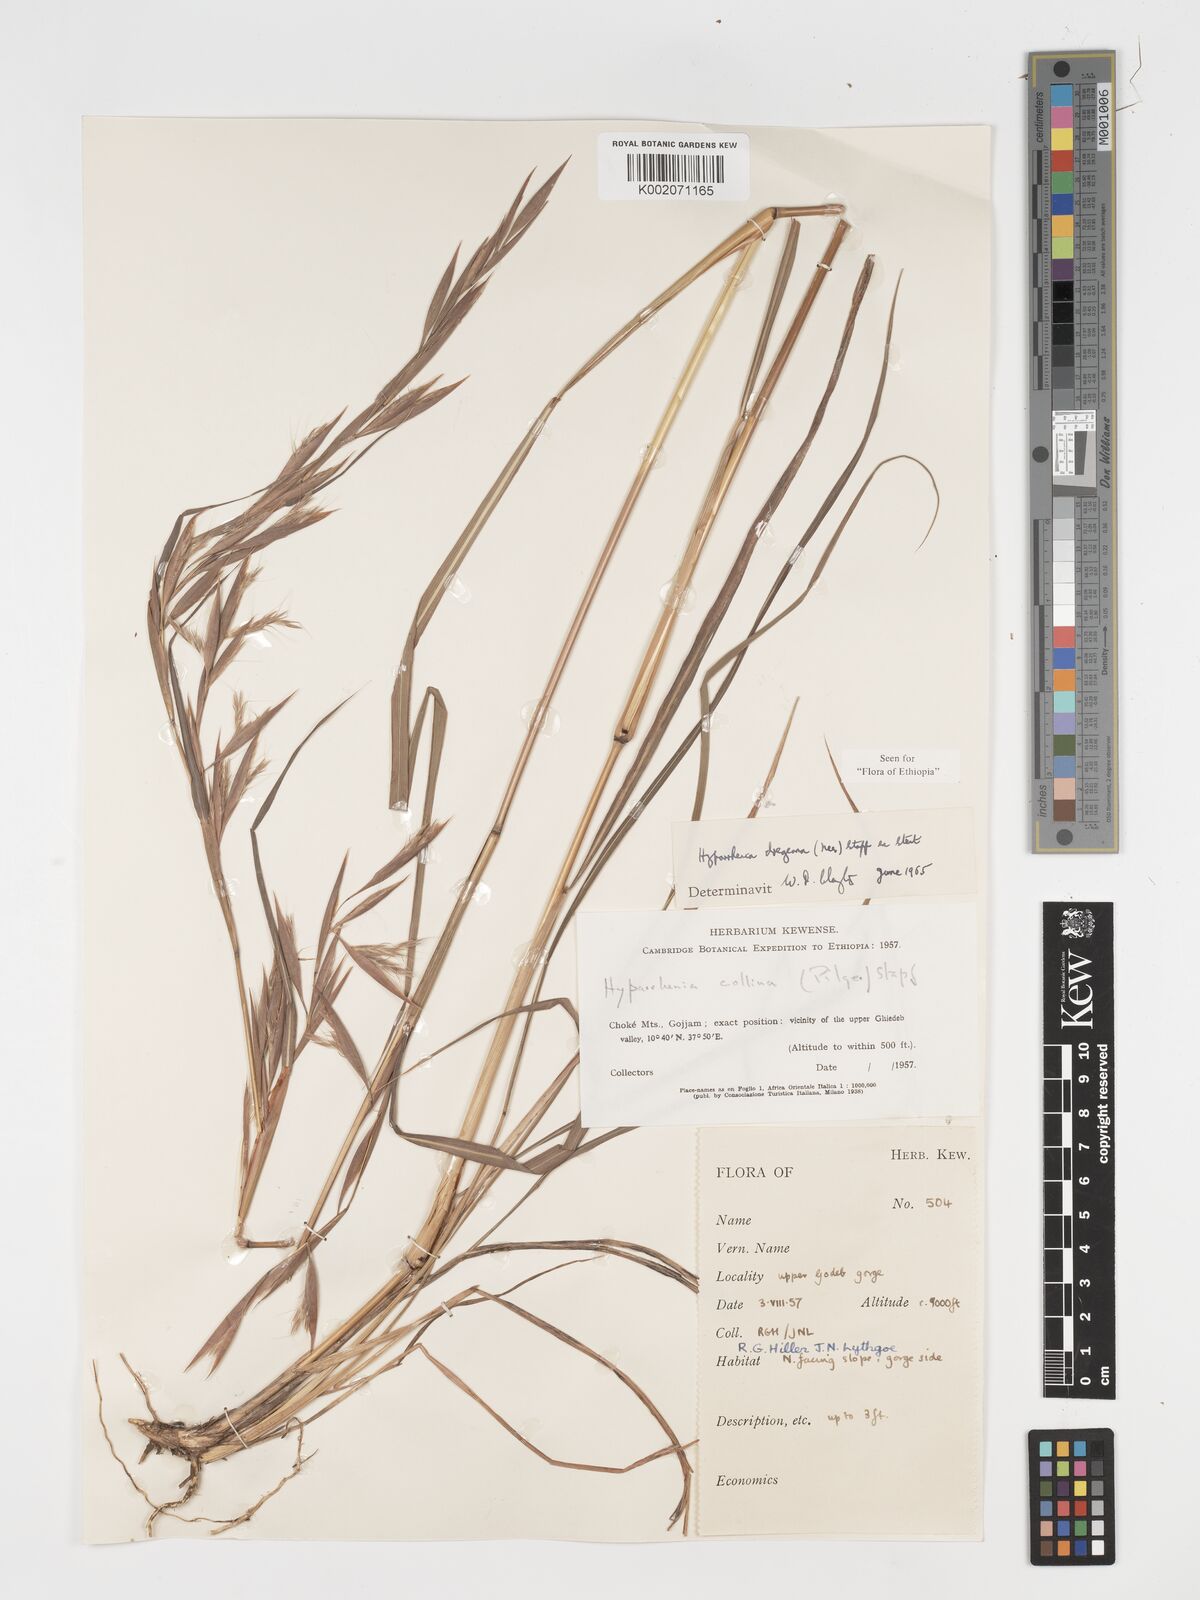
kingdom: Plantae
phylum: Tracheophyta
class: Liliopsida
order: Poales
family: Poaceae
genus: Hyparrhenia
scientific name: Hyparrhenia dregeana
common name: Silky thatching grass
